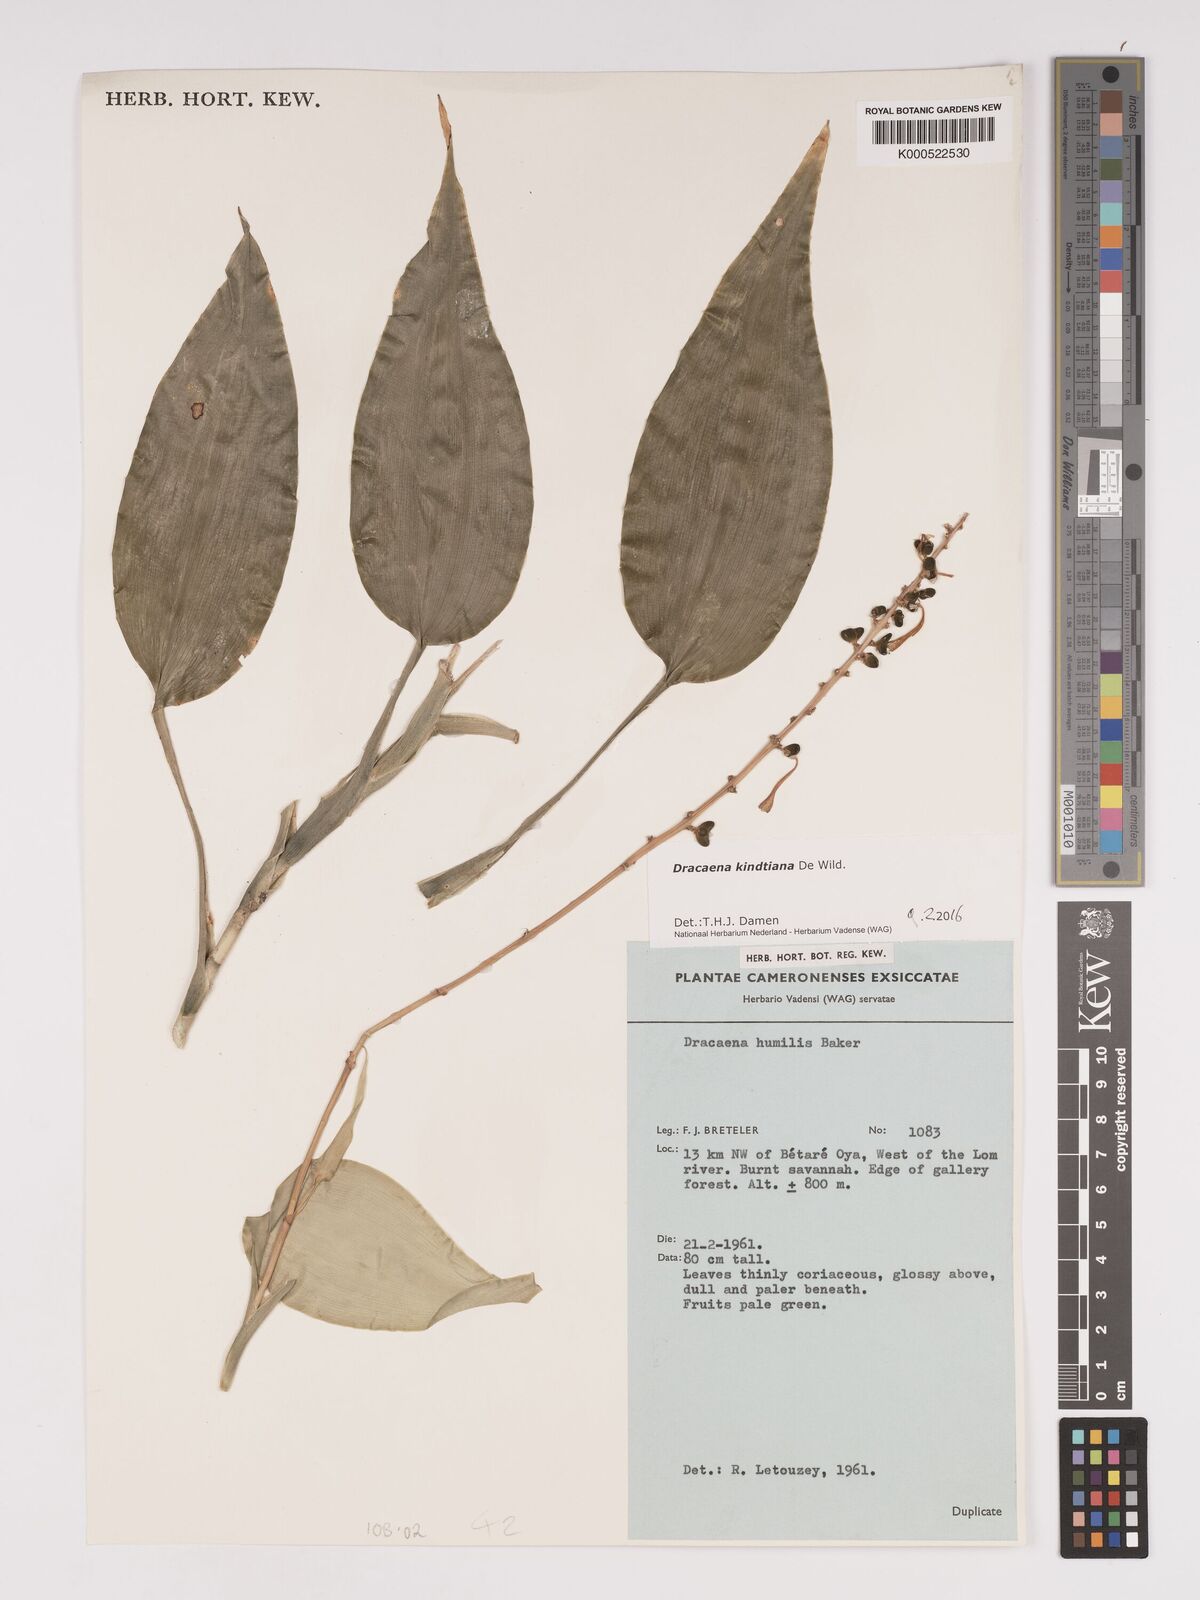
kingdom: Plantae
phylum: Tracheophyta
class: Liliopsida
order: Asparagales
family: Asparagaceae
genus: Dracaena
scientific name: Dracaena kindtiana
